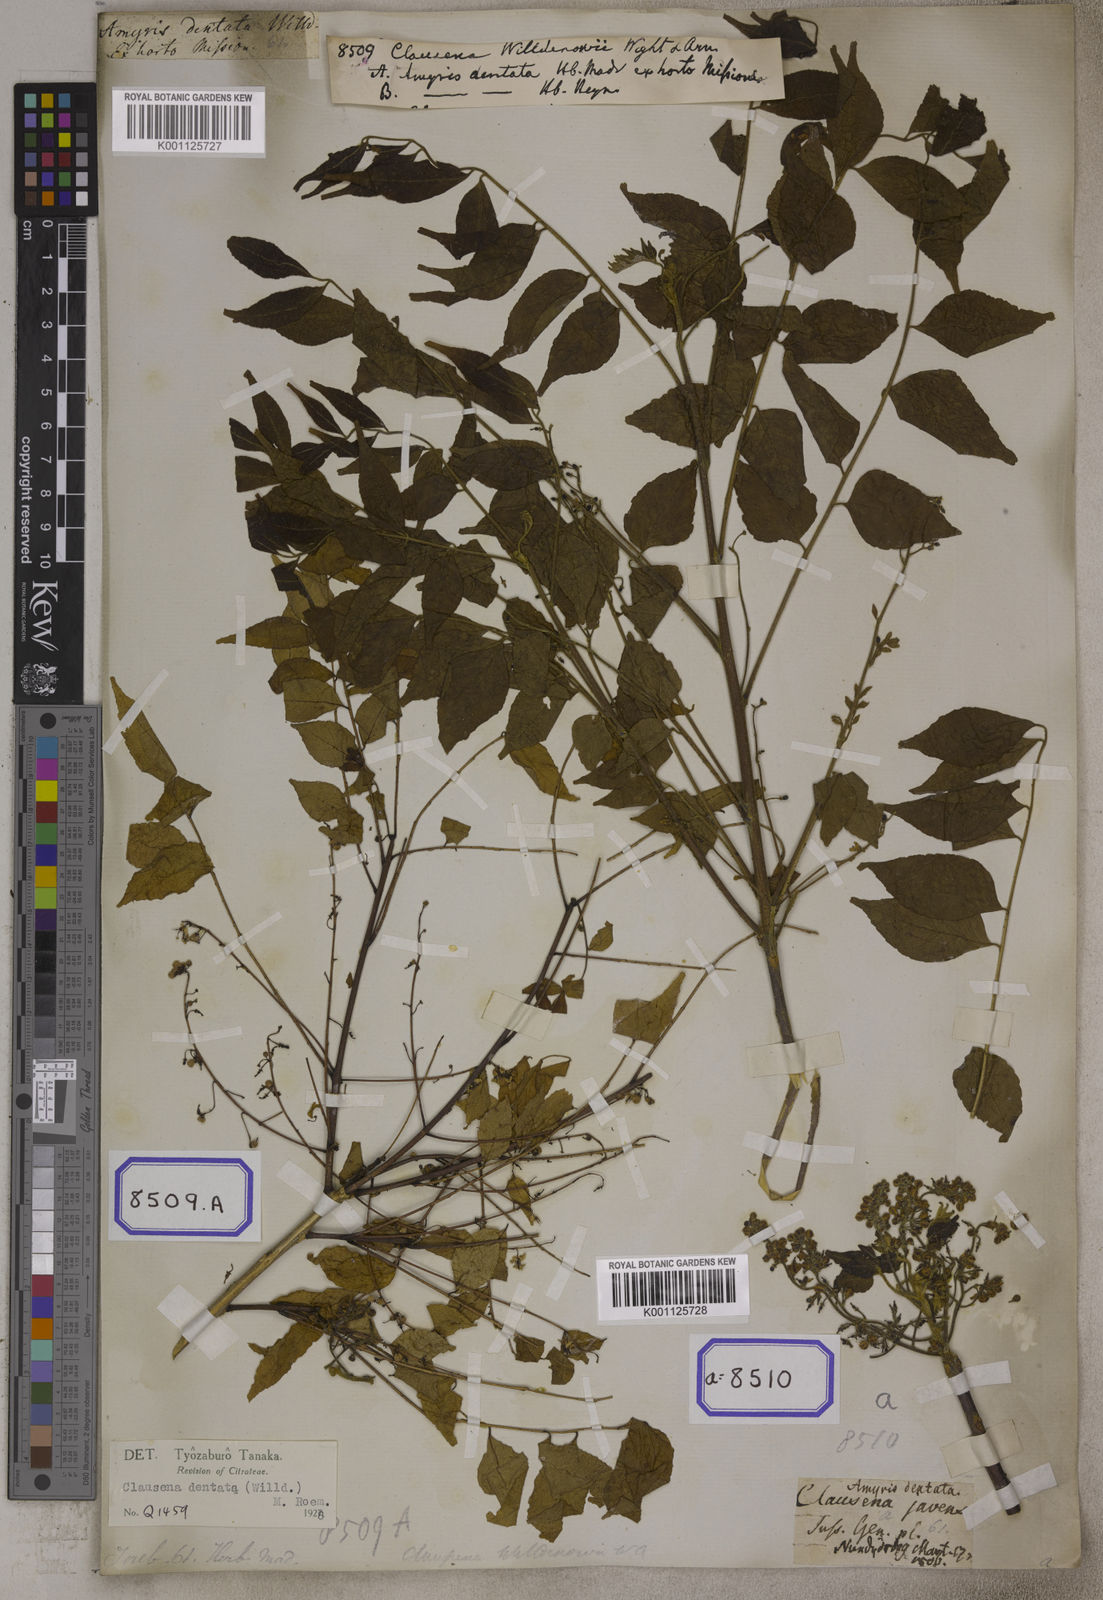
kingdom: Plantae
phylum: Tracheophyta
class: Magnoliopsida
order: Sapindales
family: Rutaceae
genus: Clausena
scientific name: Clausena anisata
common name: Horsewood
